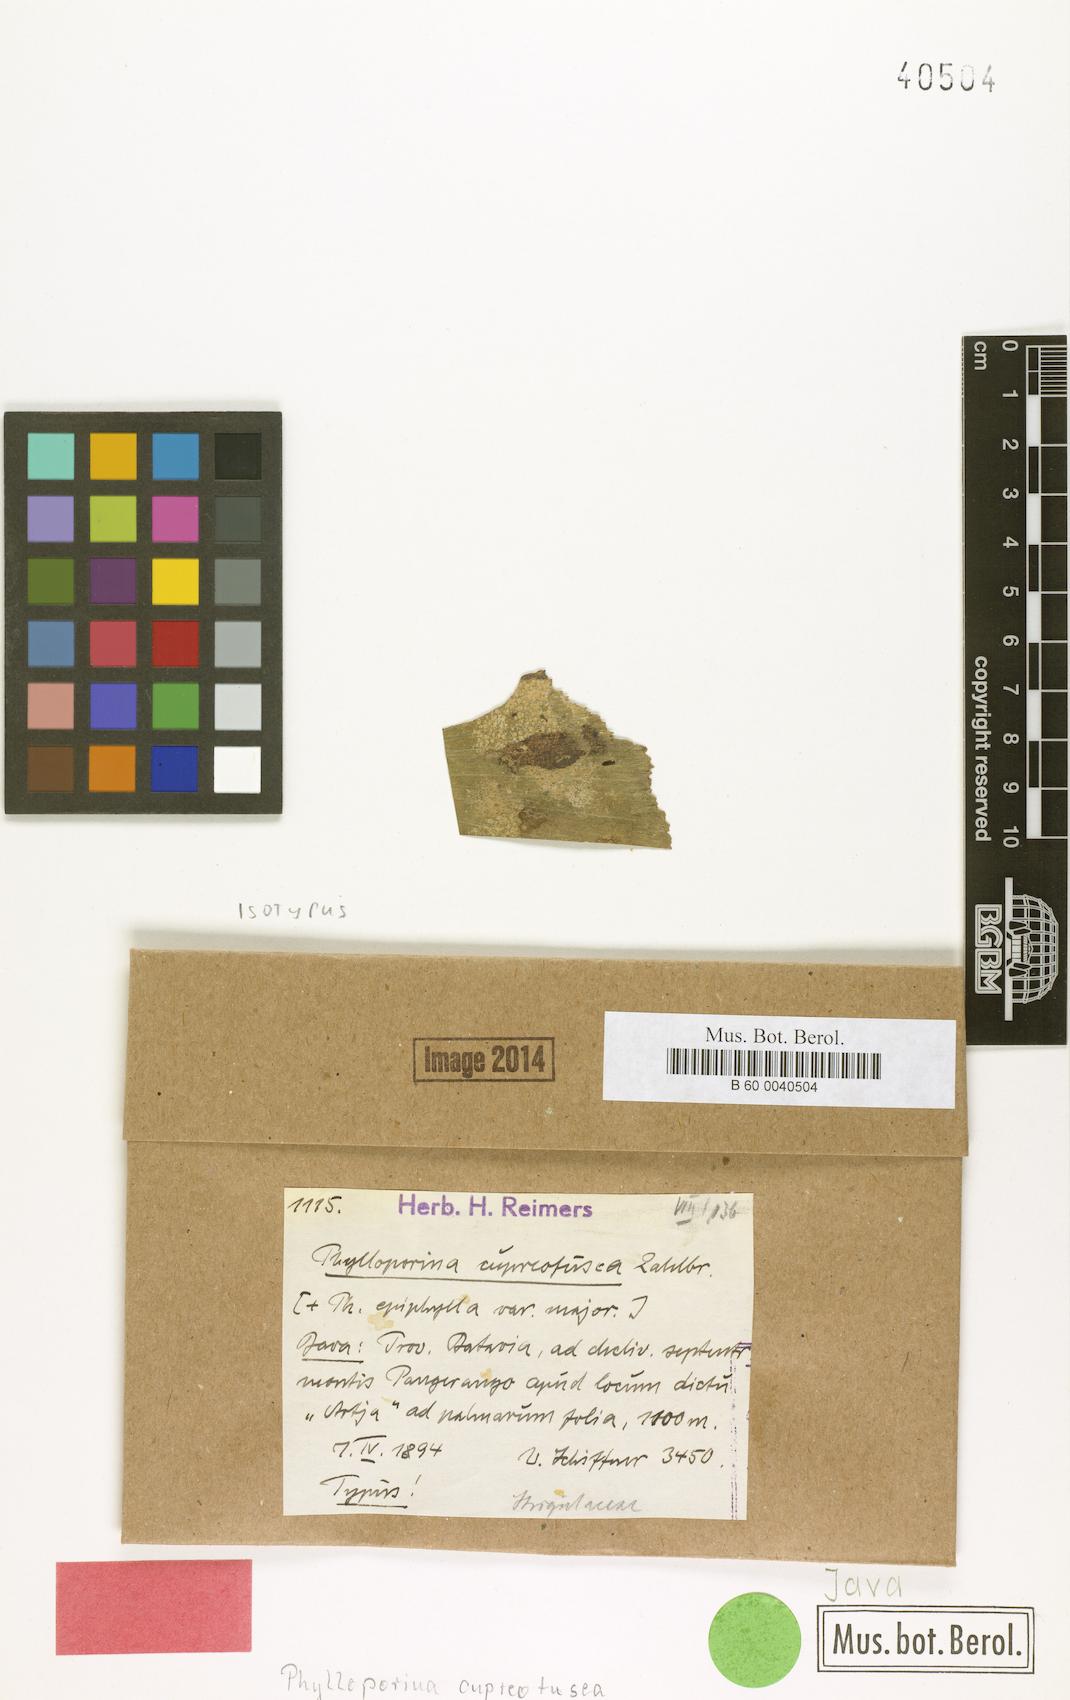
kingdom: Fungi
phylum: Ascomycota
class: Lecanoromycetes
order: Pertusariales
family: Pertusariaceae
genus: Phylloporina
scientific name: Phylloporina cupreofusca
